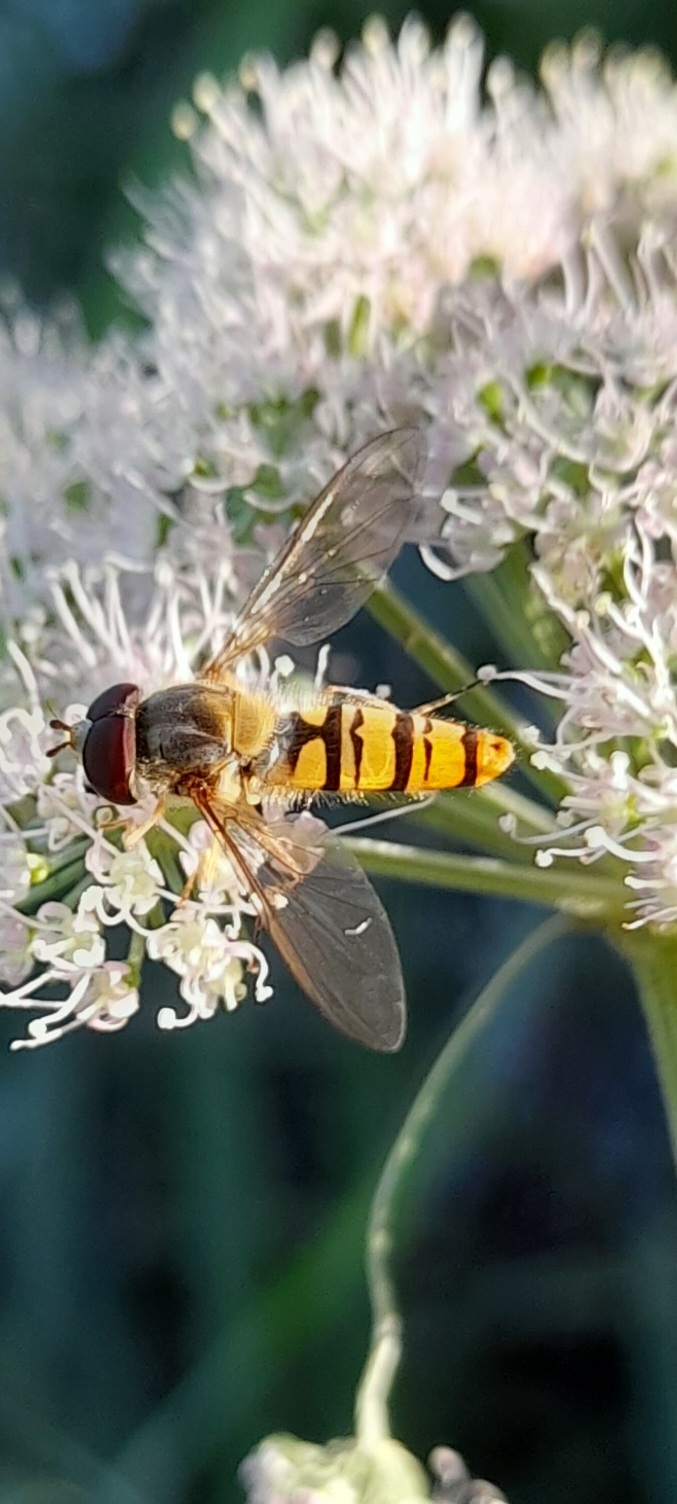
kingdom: Animalia
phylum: Arthropoda
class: Insecta
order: Diptera
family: Syrphidae
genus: Episyrphus
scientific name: Episyrphus balteatus
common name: Dobbeltbåndet svirreflue
